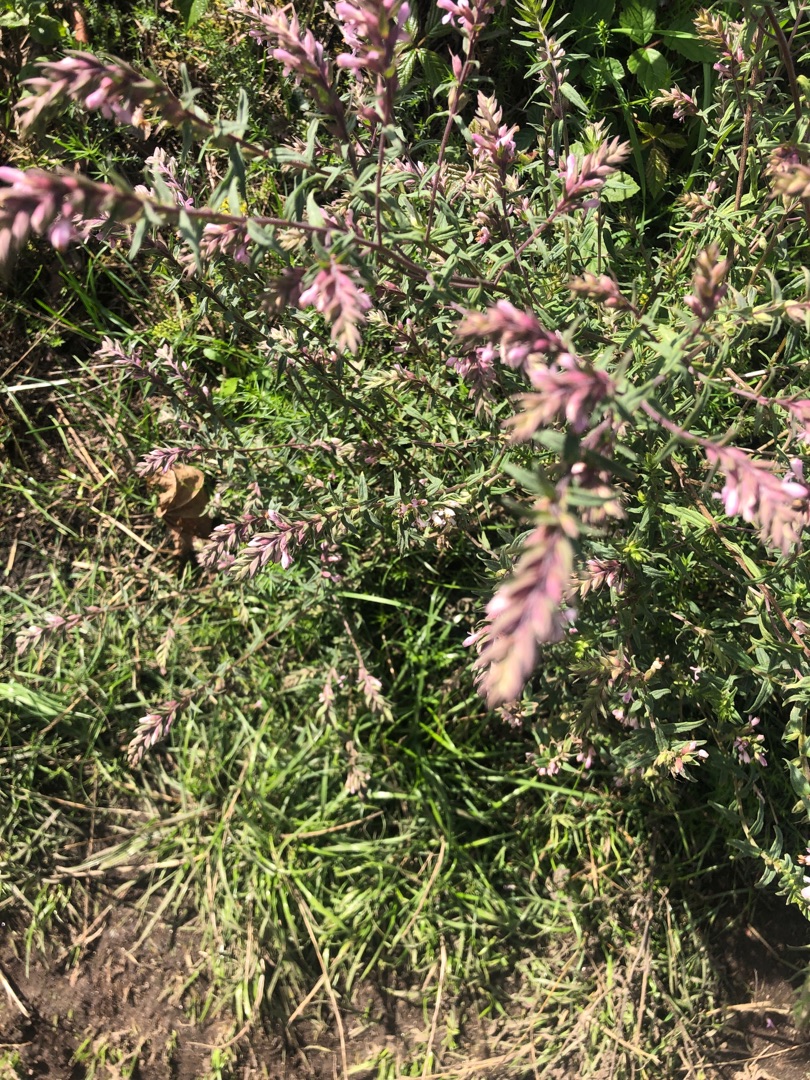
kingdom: Plantae
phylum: Tracheophyta
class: Magnoliopsida
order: Lamiales
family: Orobanchaceae
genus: Odontites
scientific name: Odontites vulgaris
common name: Høst-rødtop
